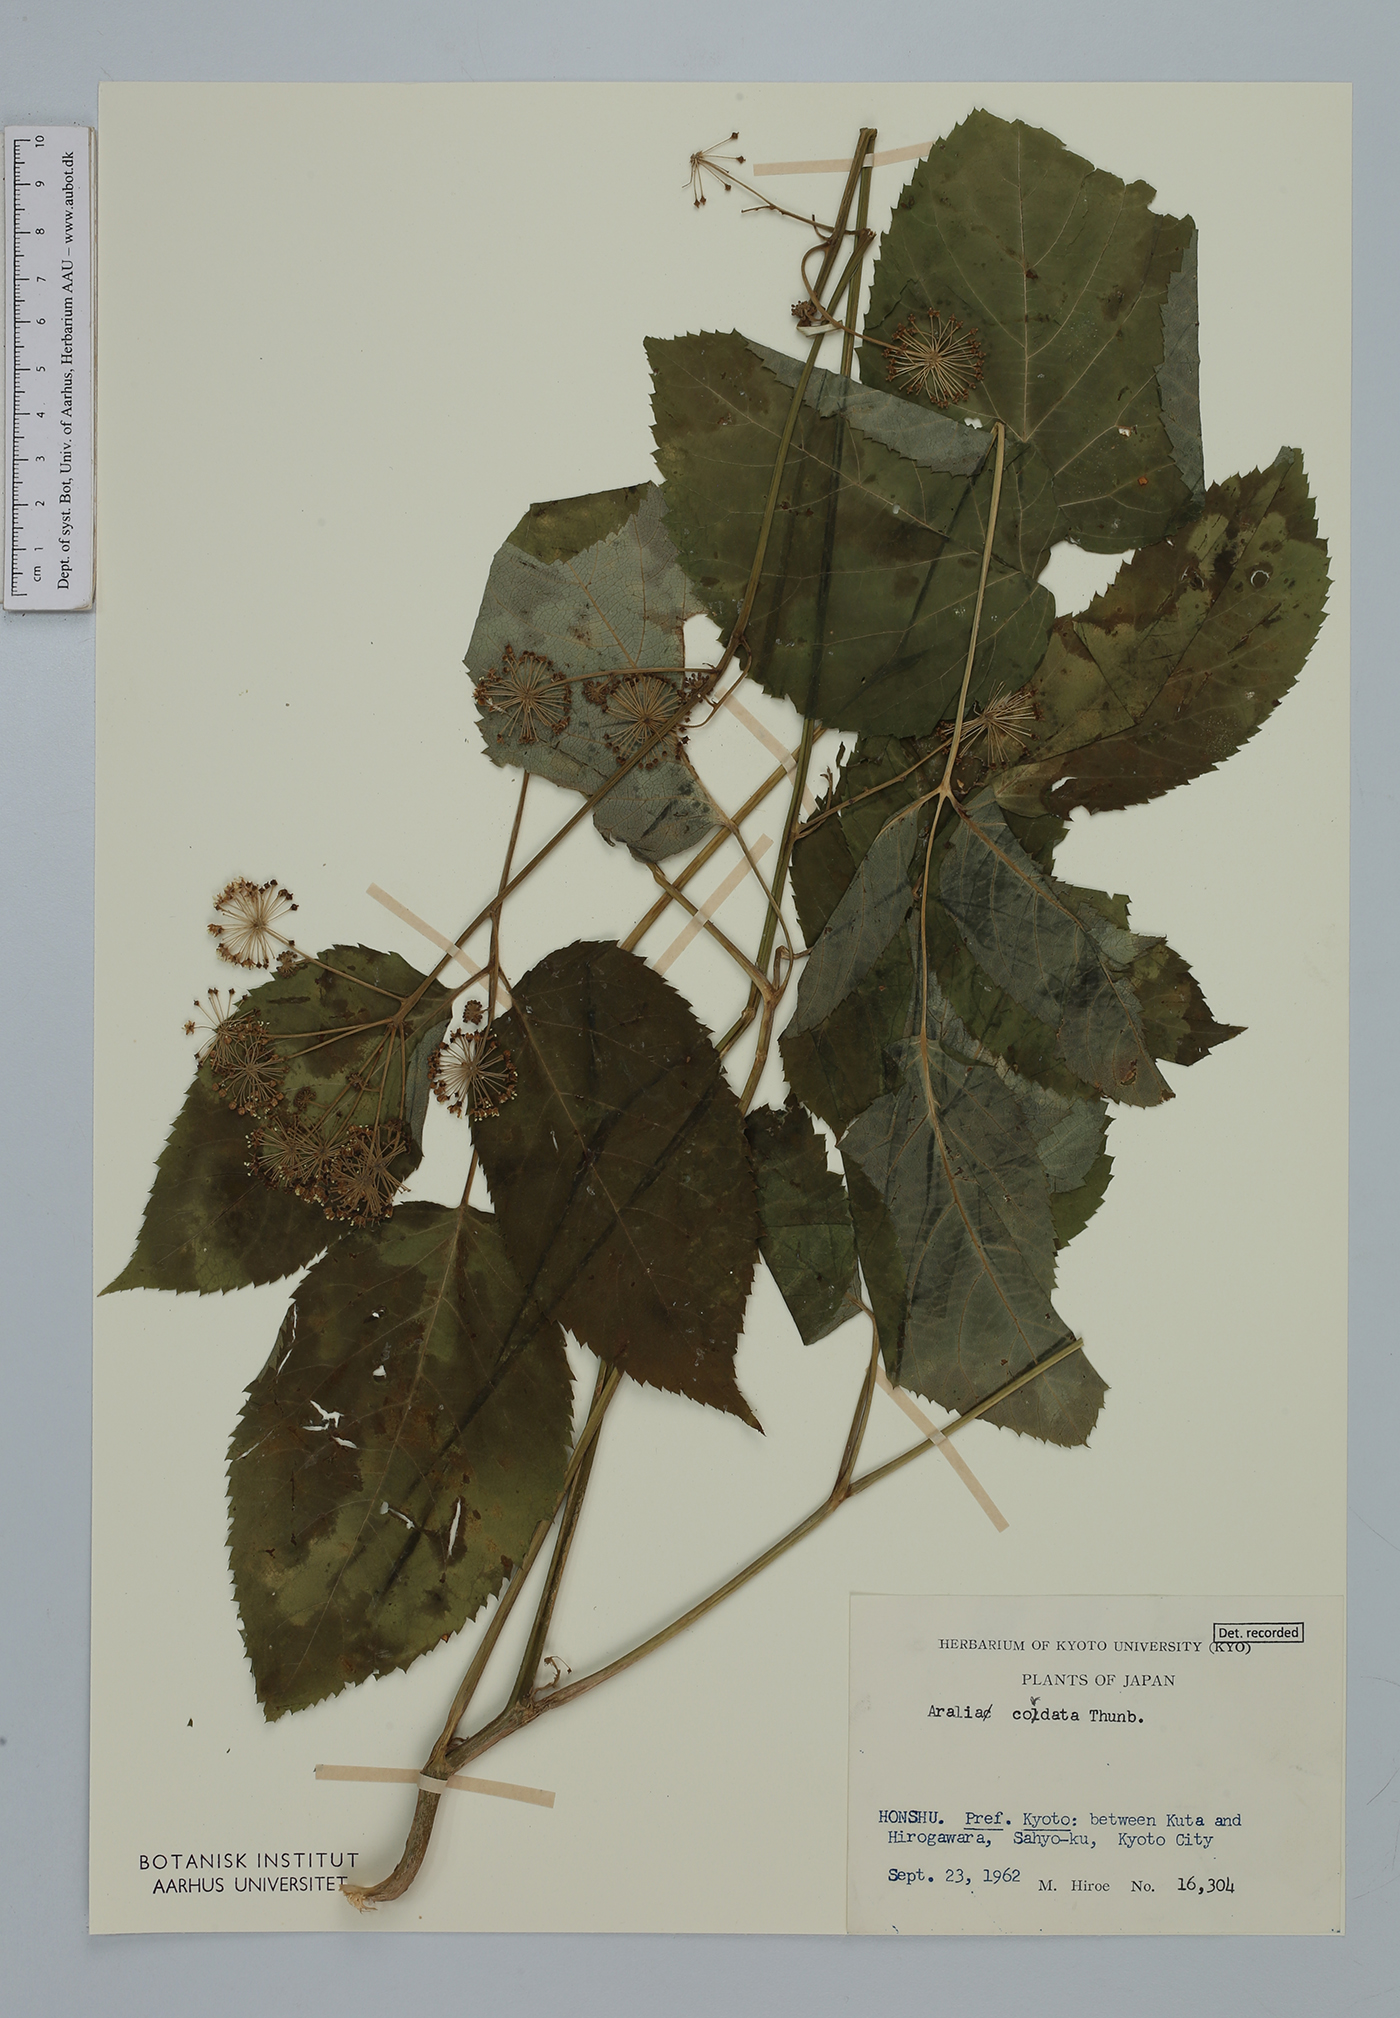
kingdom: Plantae
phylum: Tracheophyta
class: Magnoliopsida
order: Apiales
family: Araliaceae
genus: Aralia
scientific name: Aralia cordata
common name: Udo
